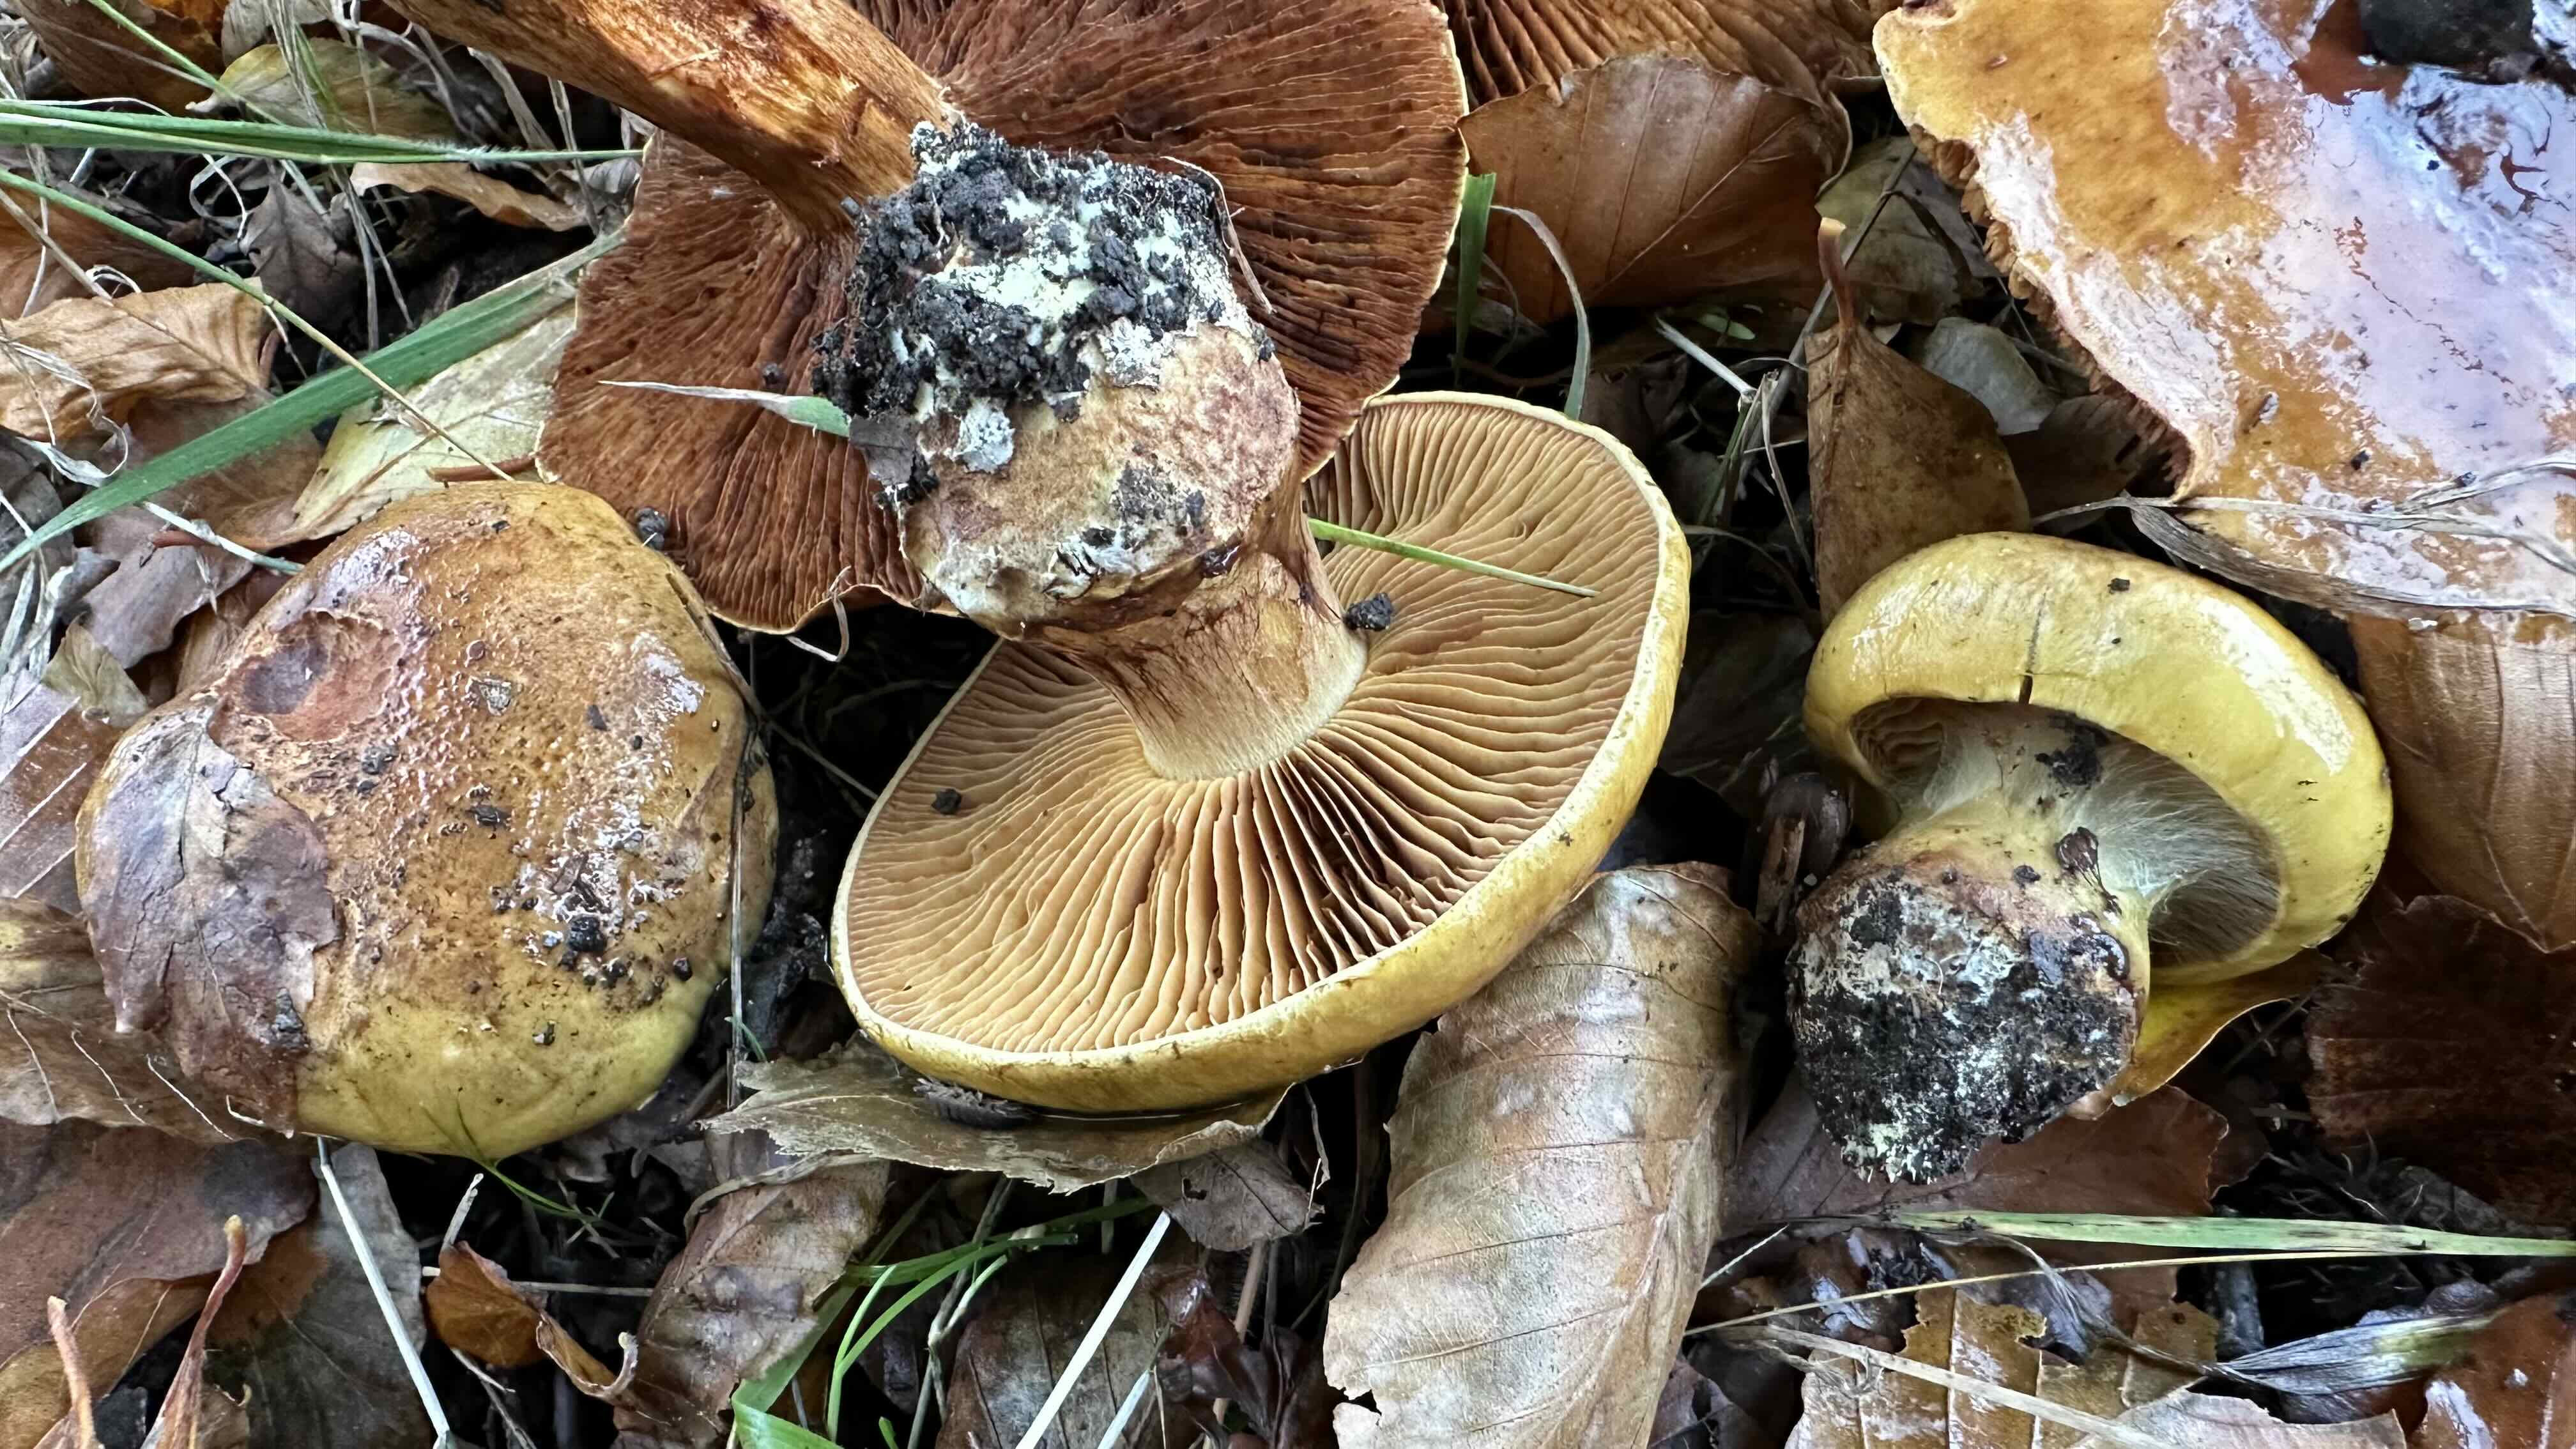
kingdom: Fungi
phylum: Basidiomycota
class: Agaricomycetes
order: Agaricales
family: Cortinariaceae
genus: Calonarius
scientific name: Calonarius alcalinophilus
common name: gyldenbrun slørhat
